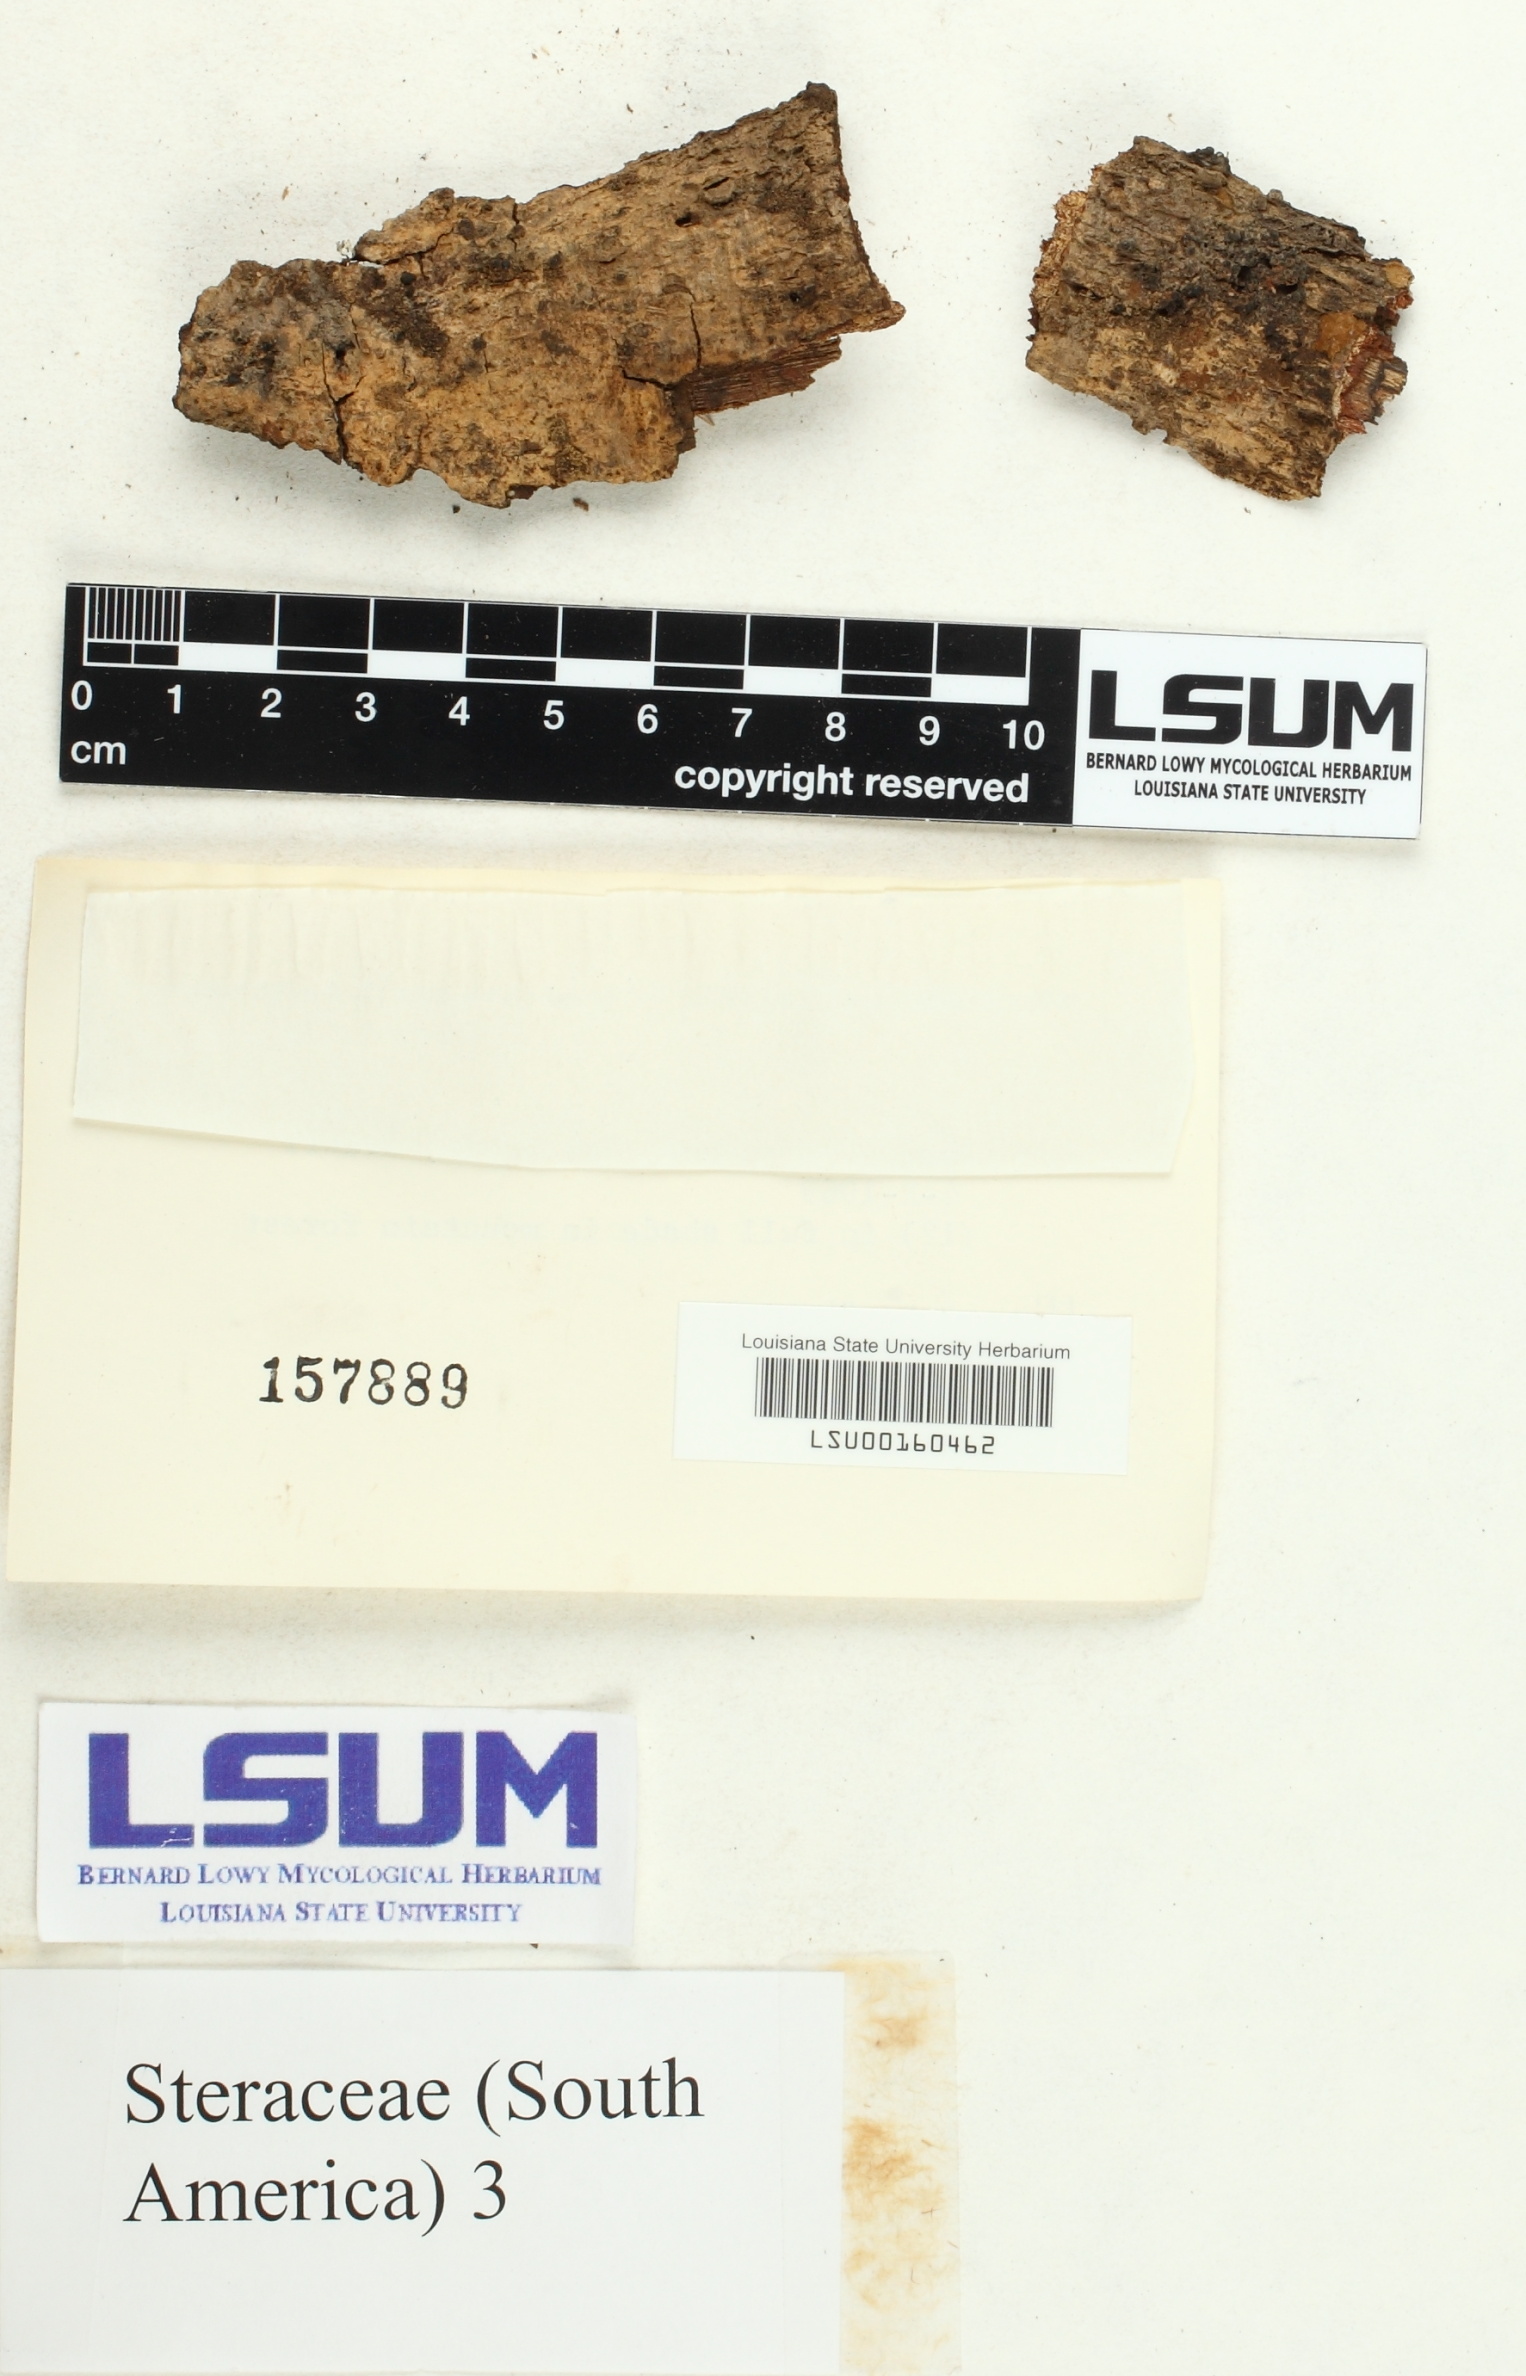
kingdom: Fungi
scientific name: Fungi
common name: Fungi
